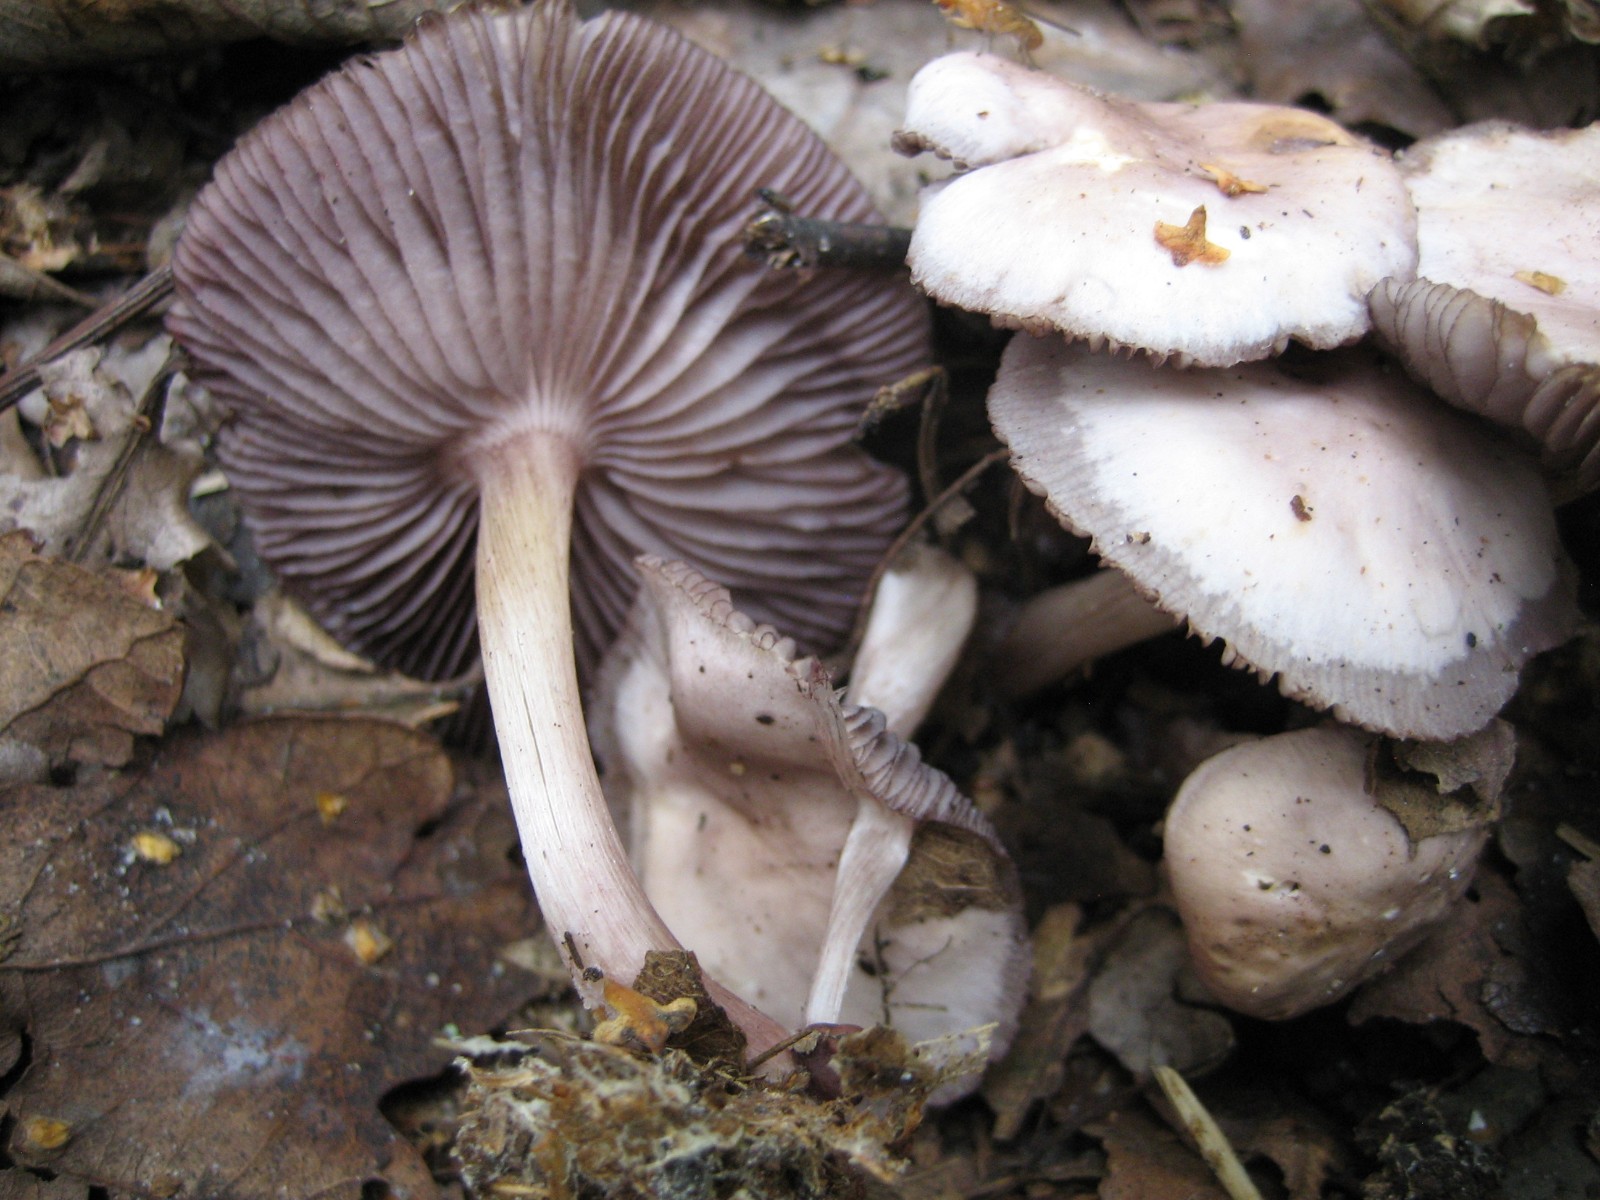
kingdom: Fungi
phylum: Basidiomycota
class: Agaricomycetes
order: Agaricales
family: Mycenaceae
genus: Mycena
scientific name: Mycena pelianthina
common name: mørkbladet huesvamp
